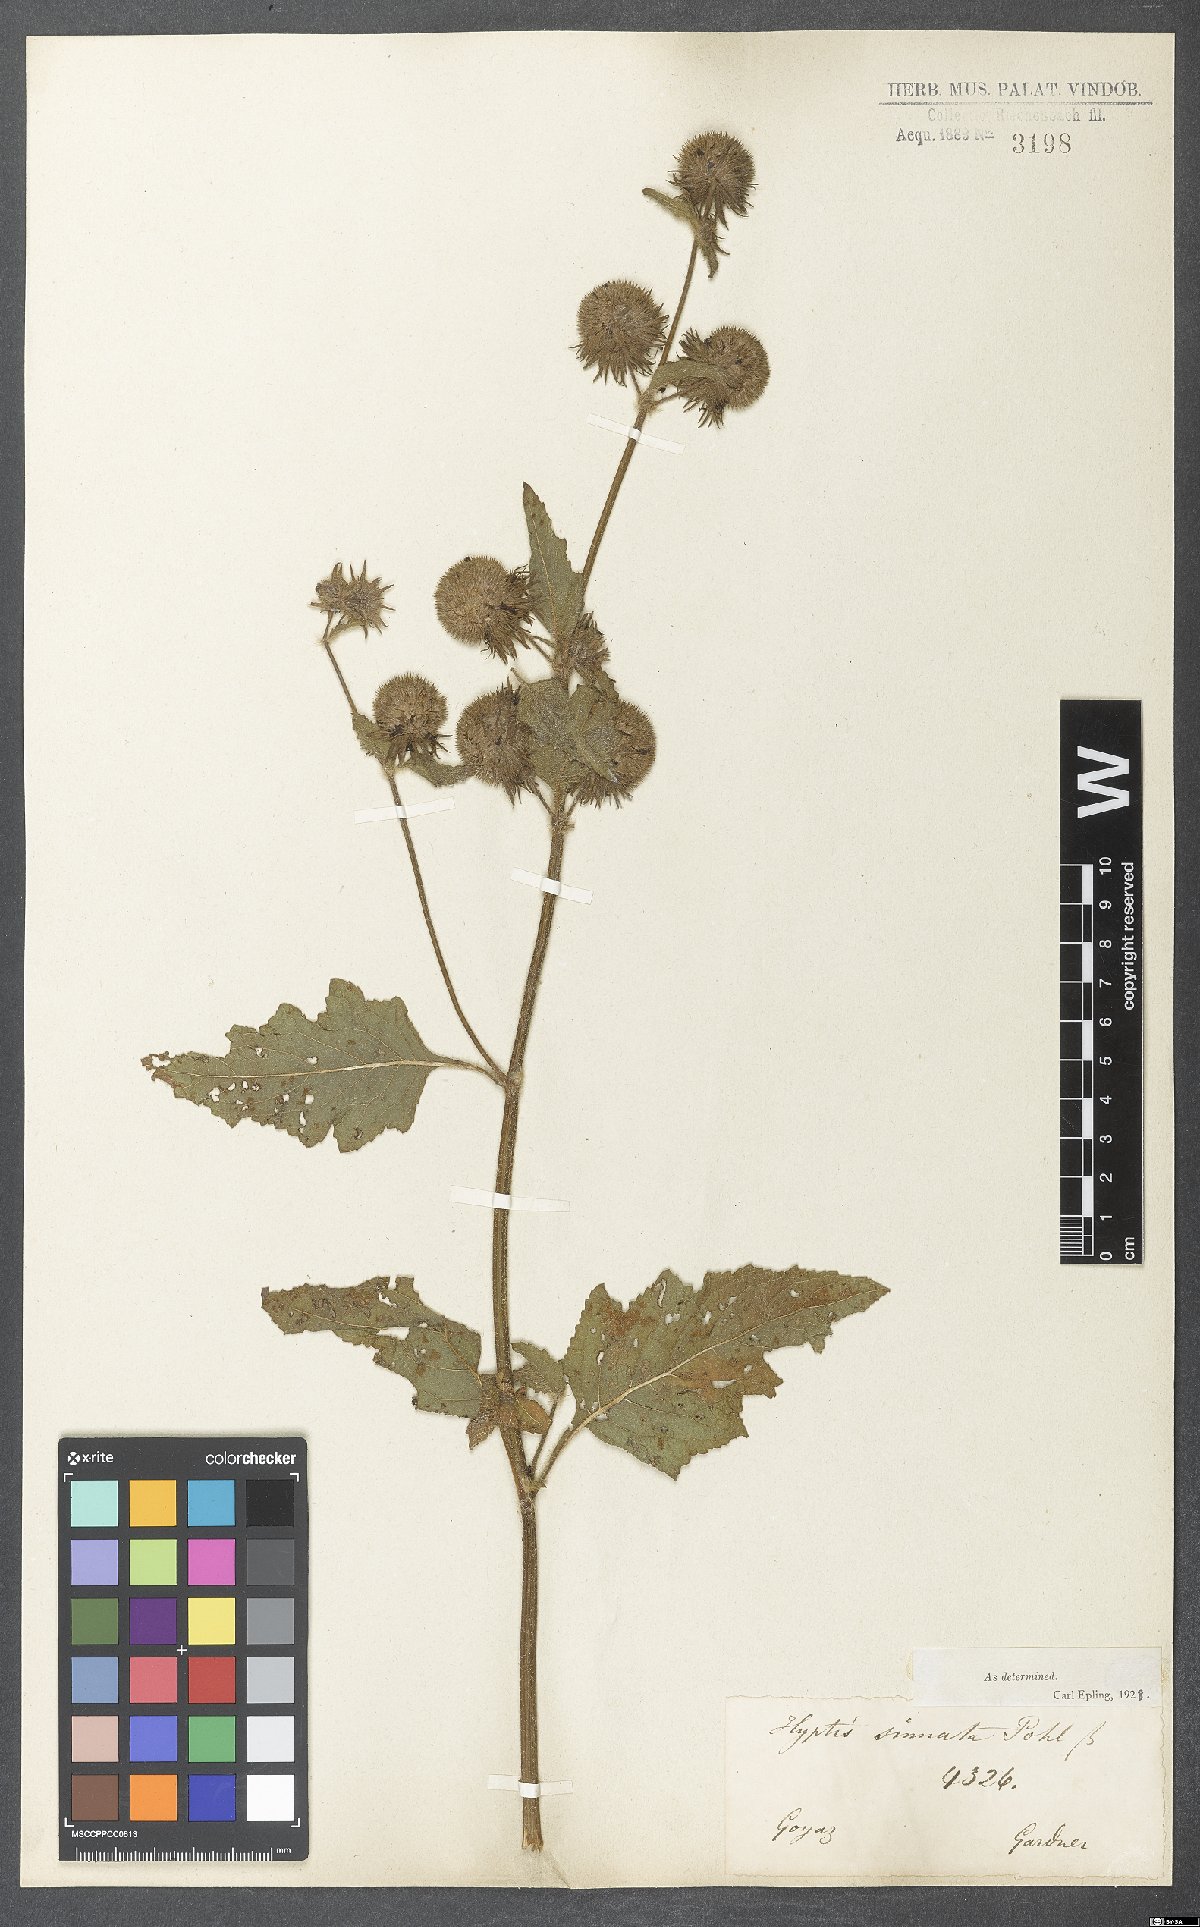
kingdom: Plantae
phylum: Tracheophyta
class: Magnoliopsida
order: Lamiales
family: Lamiaceae
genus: Hyptis
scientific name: Hyptis sinuata
